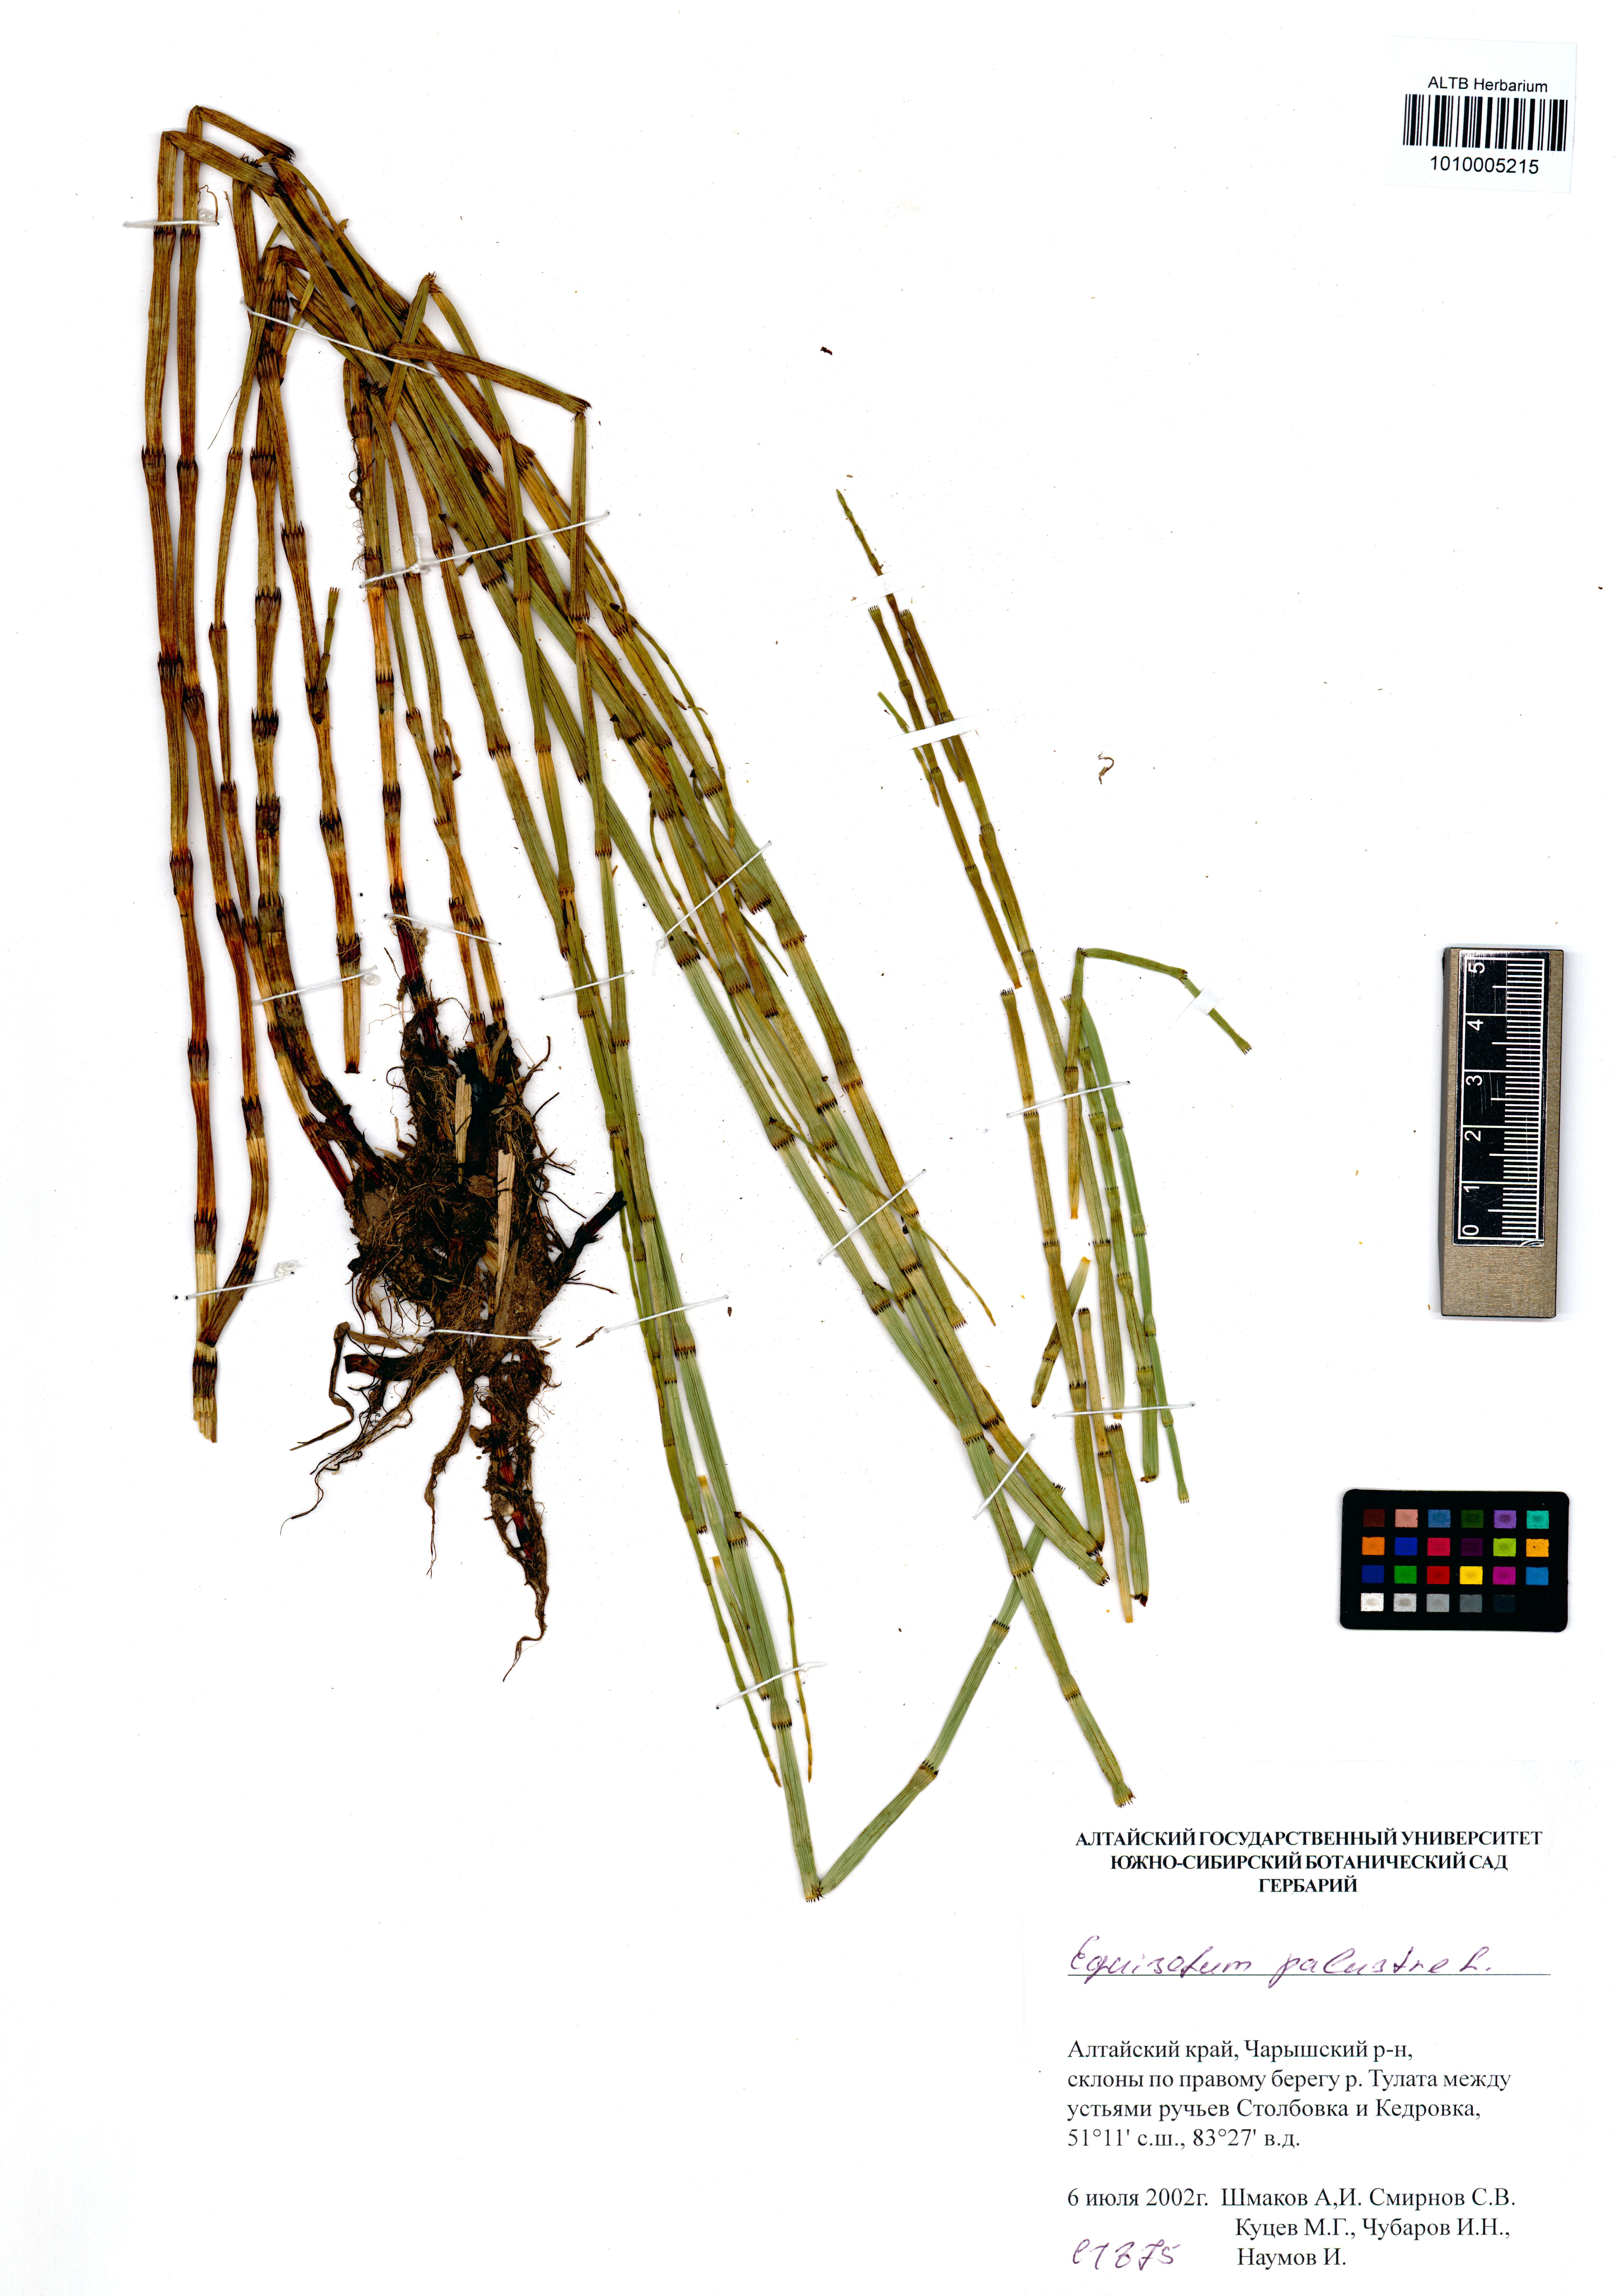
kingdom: Plantae
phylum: Tracheophyta
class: Polypodiopsida
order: Equisetales
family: Equisetaceae
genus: Equisetum
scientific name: Equisetum palustre
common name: Marsh horsetail
